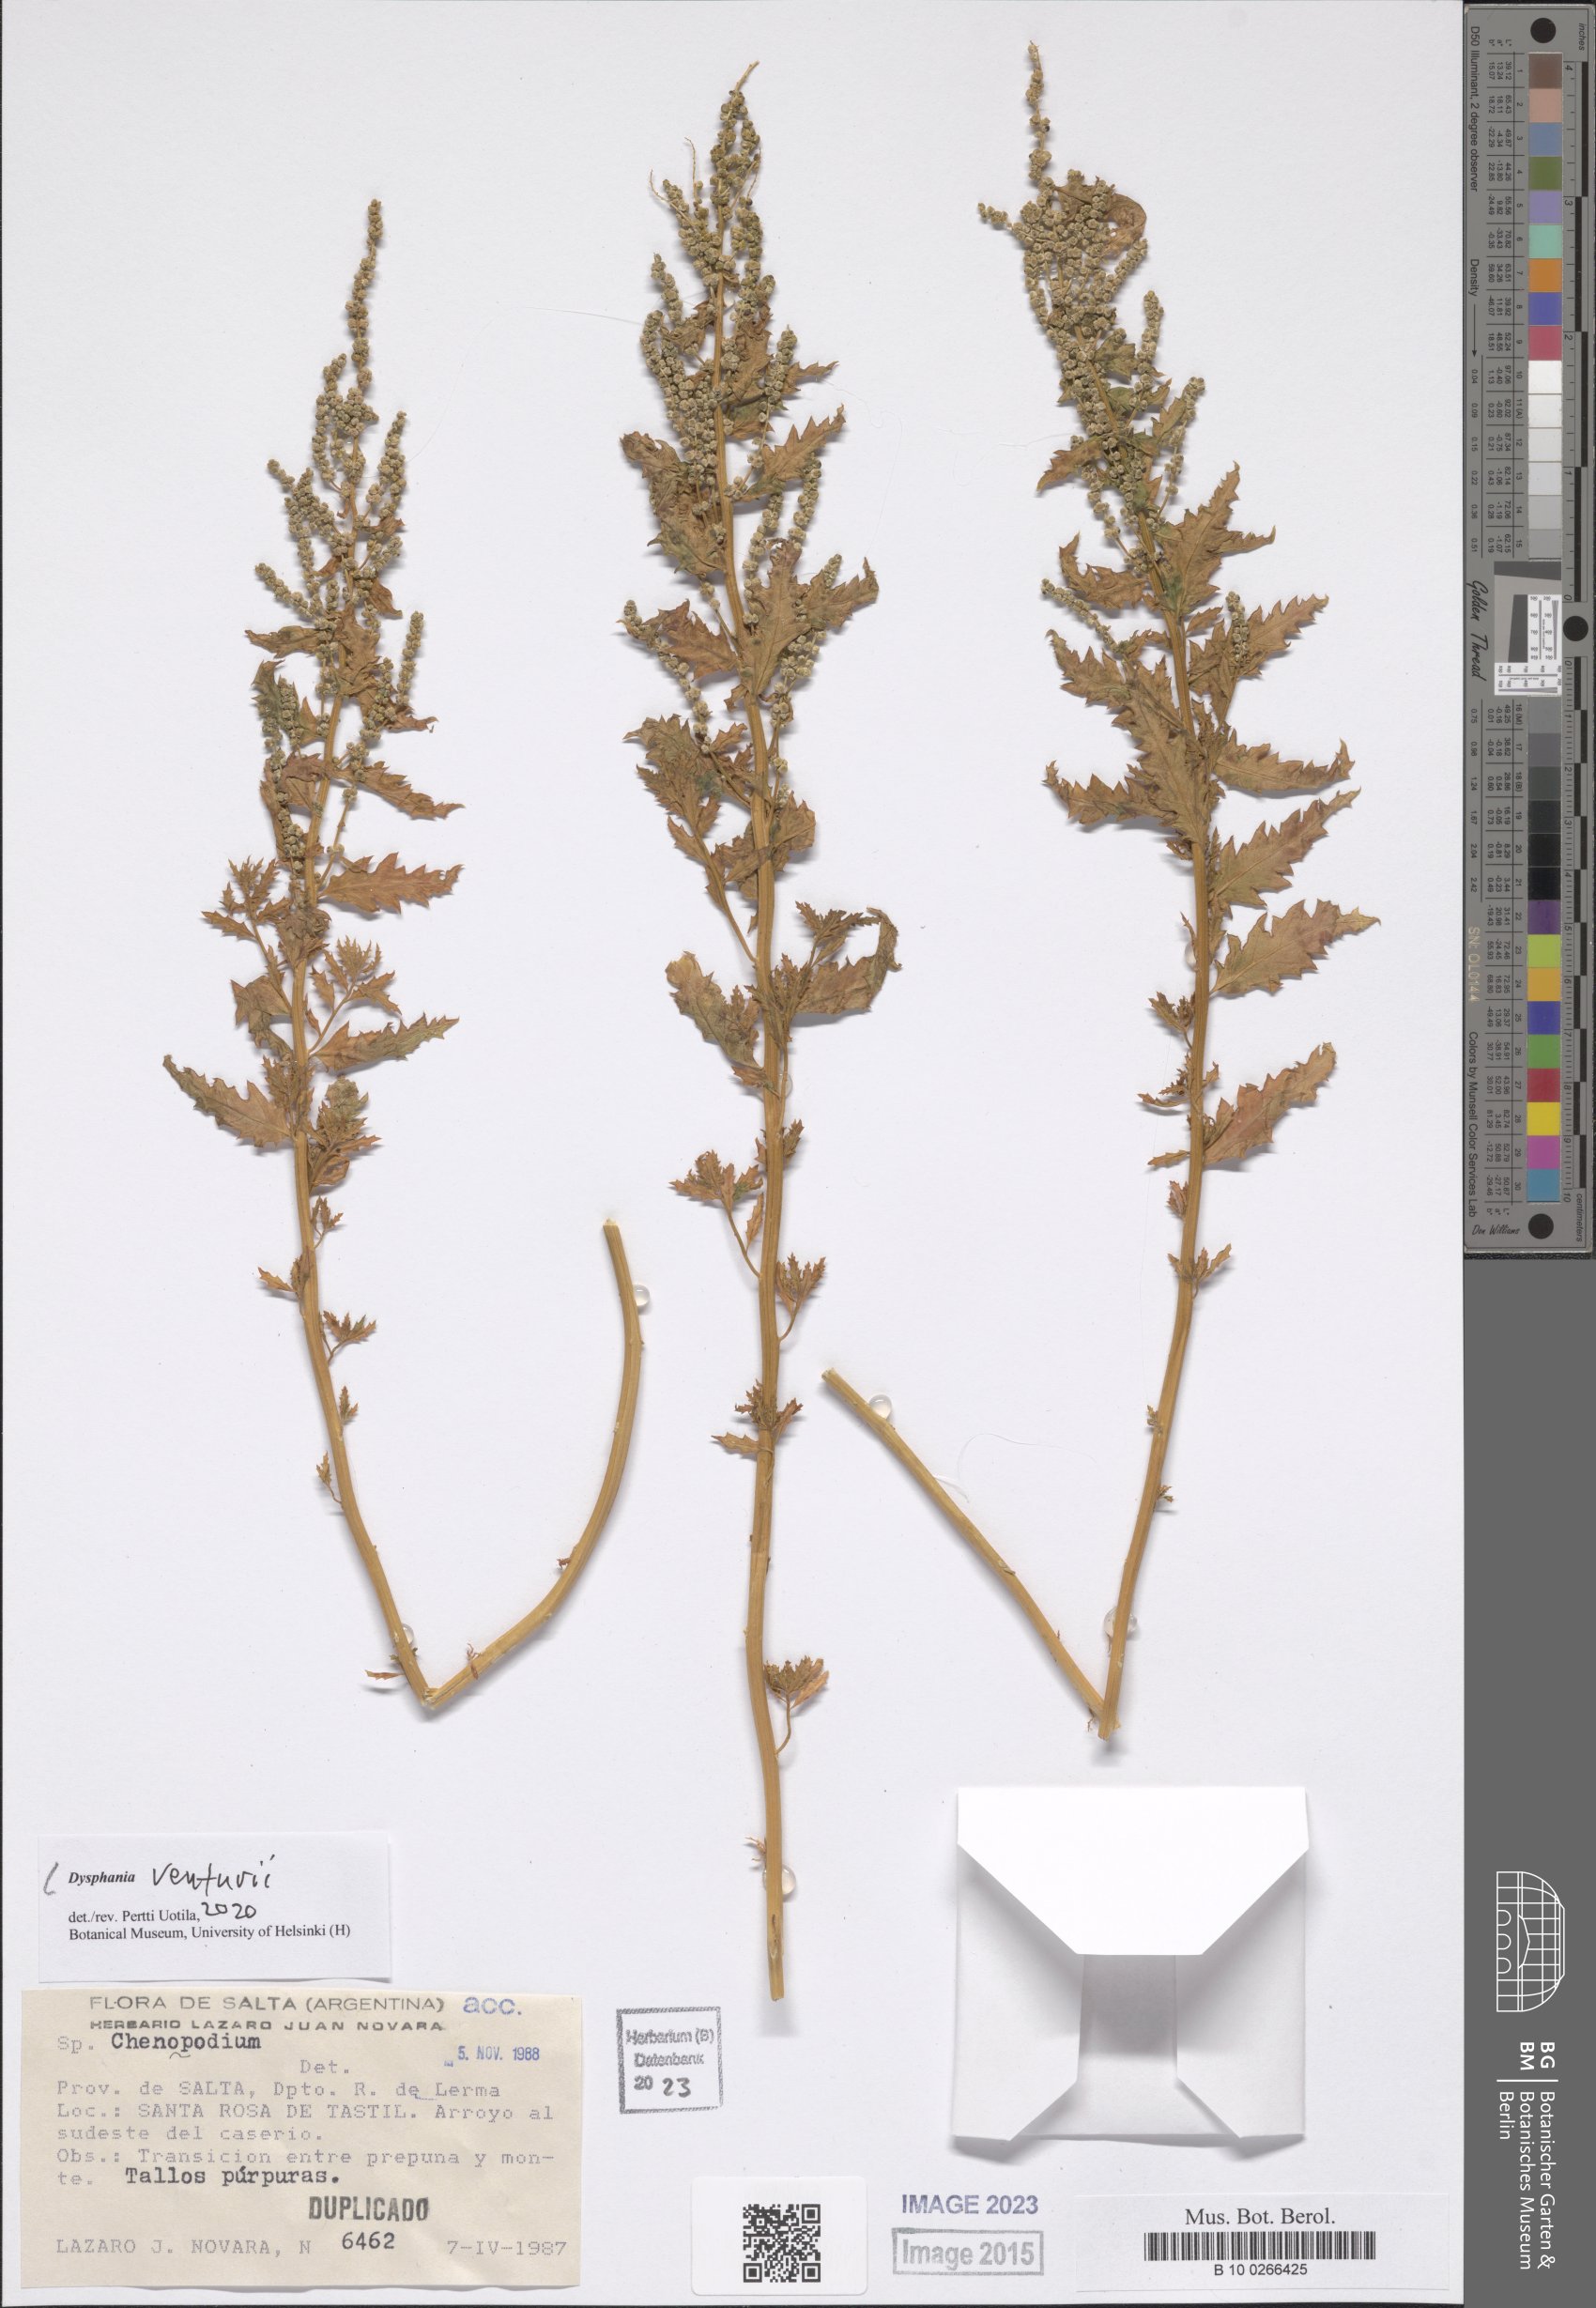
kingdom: Plantae
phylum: Tracheophyta
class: Magnoliopsida
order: Caryophyllales
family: Amaranthaceae
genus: Dysphania
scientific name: Dysphania venturii
